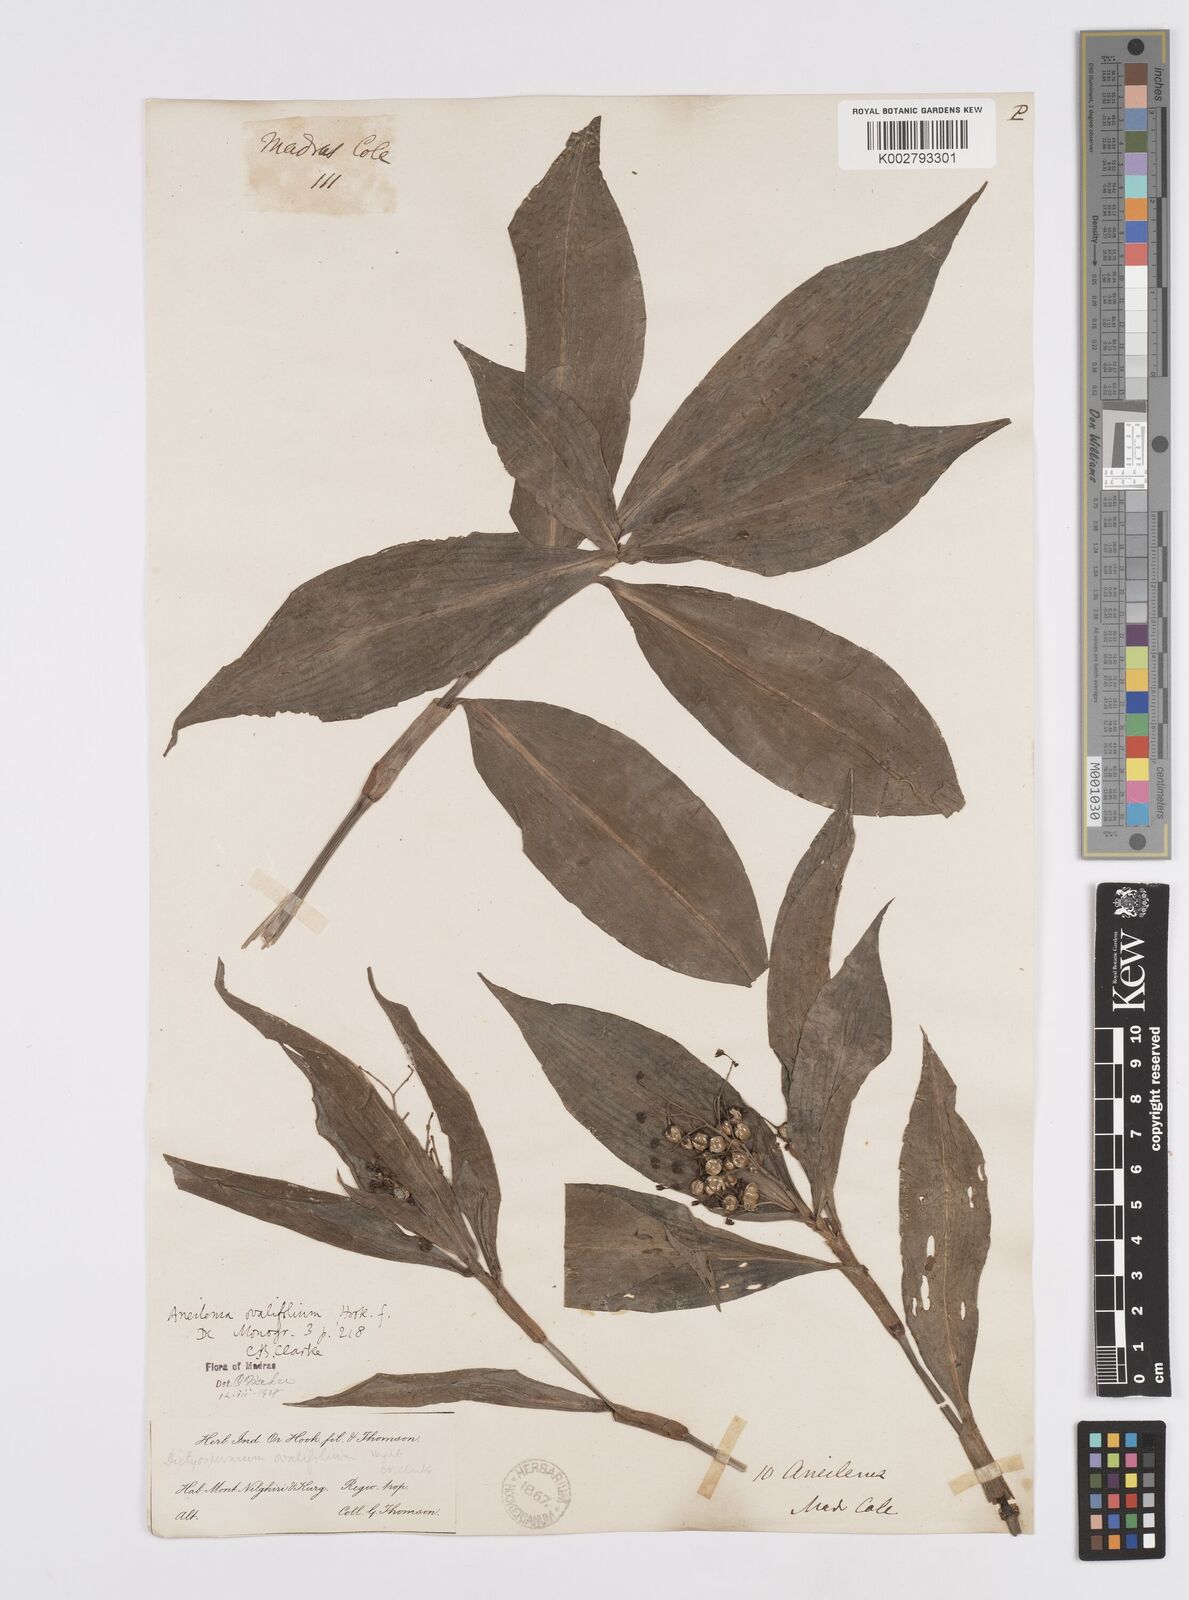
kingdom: Plantae
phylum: Tracheophyta
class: Liliopsida
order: Commelinales
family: Commelinaceae
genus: Murdannia
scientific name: Murdannia
